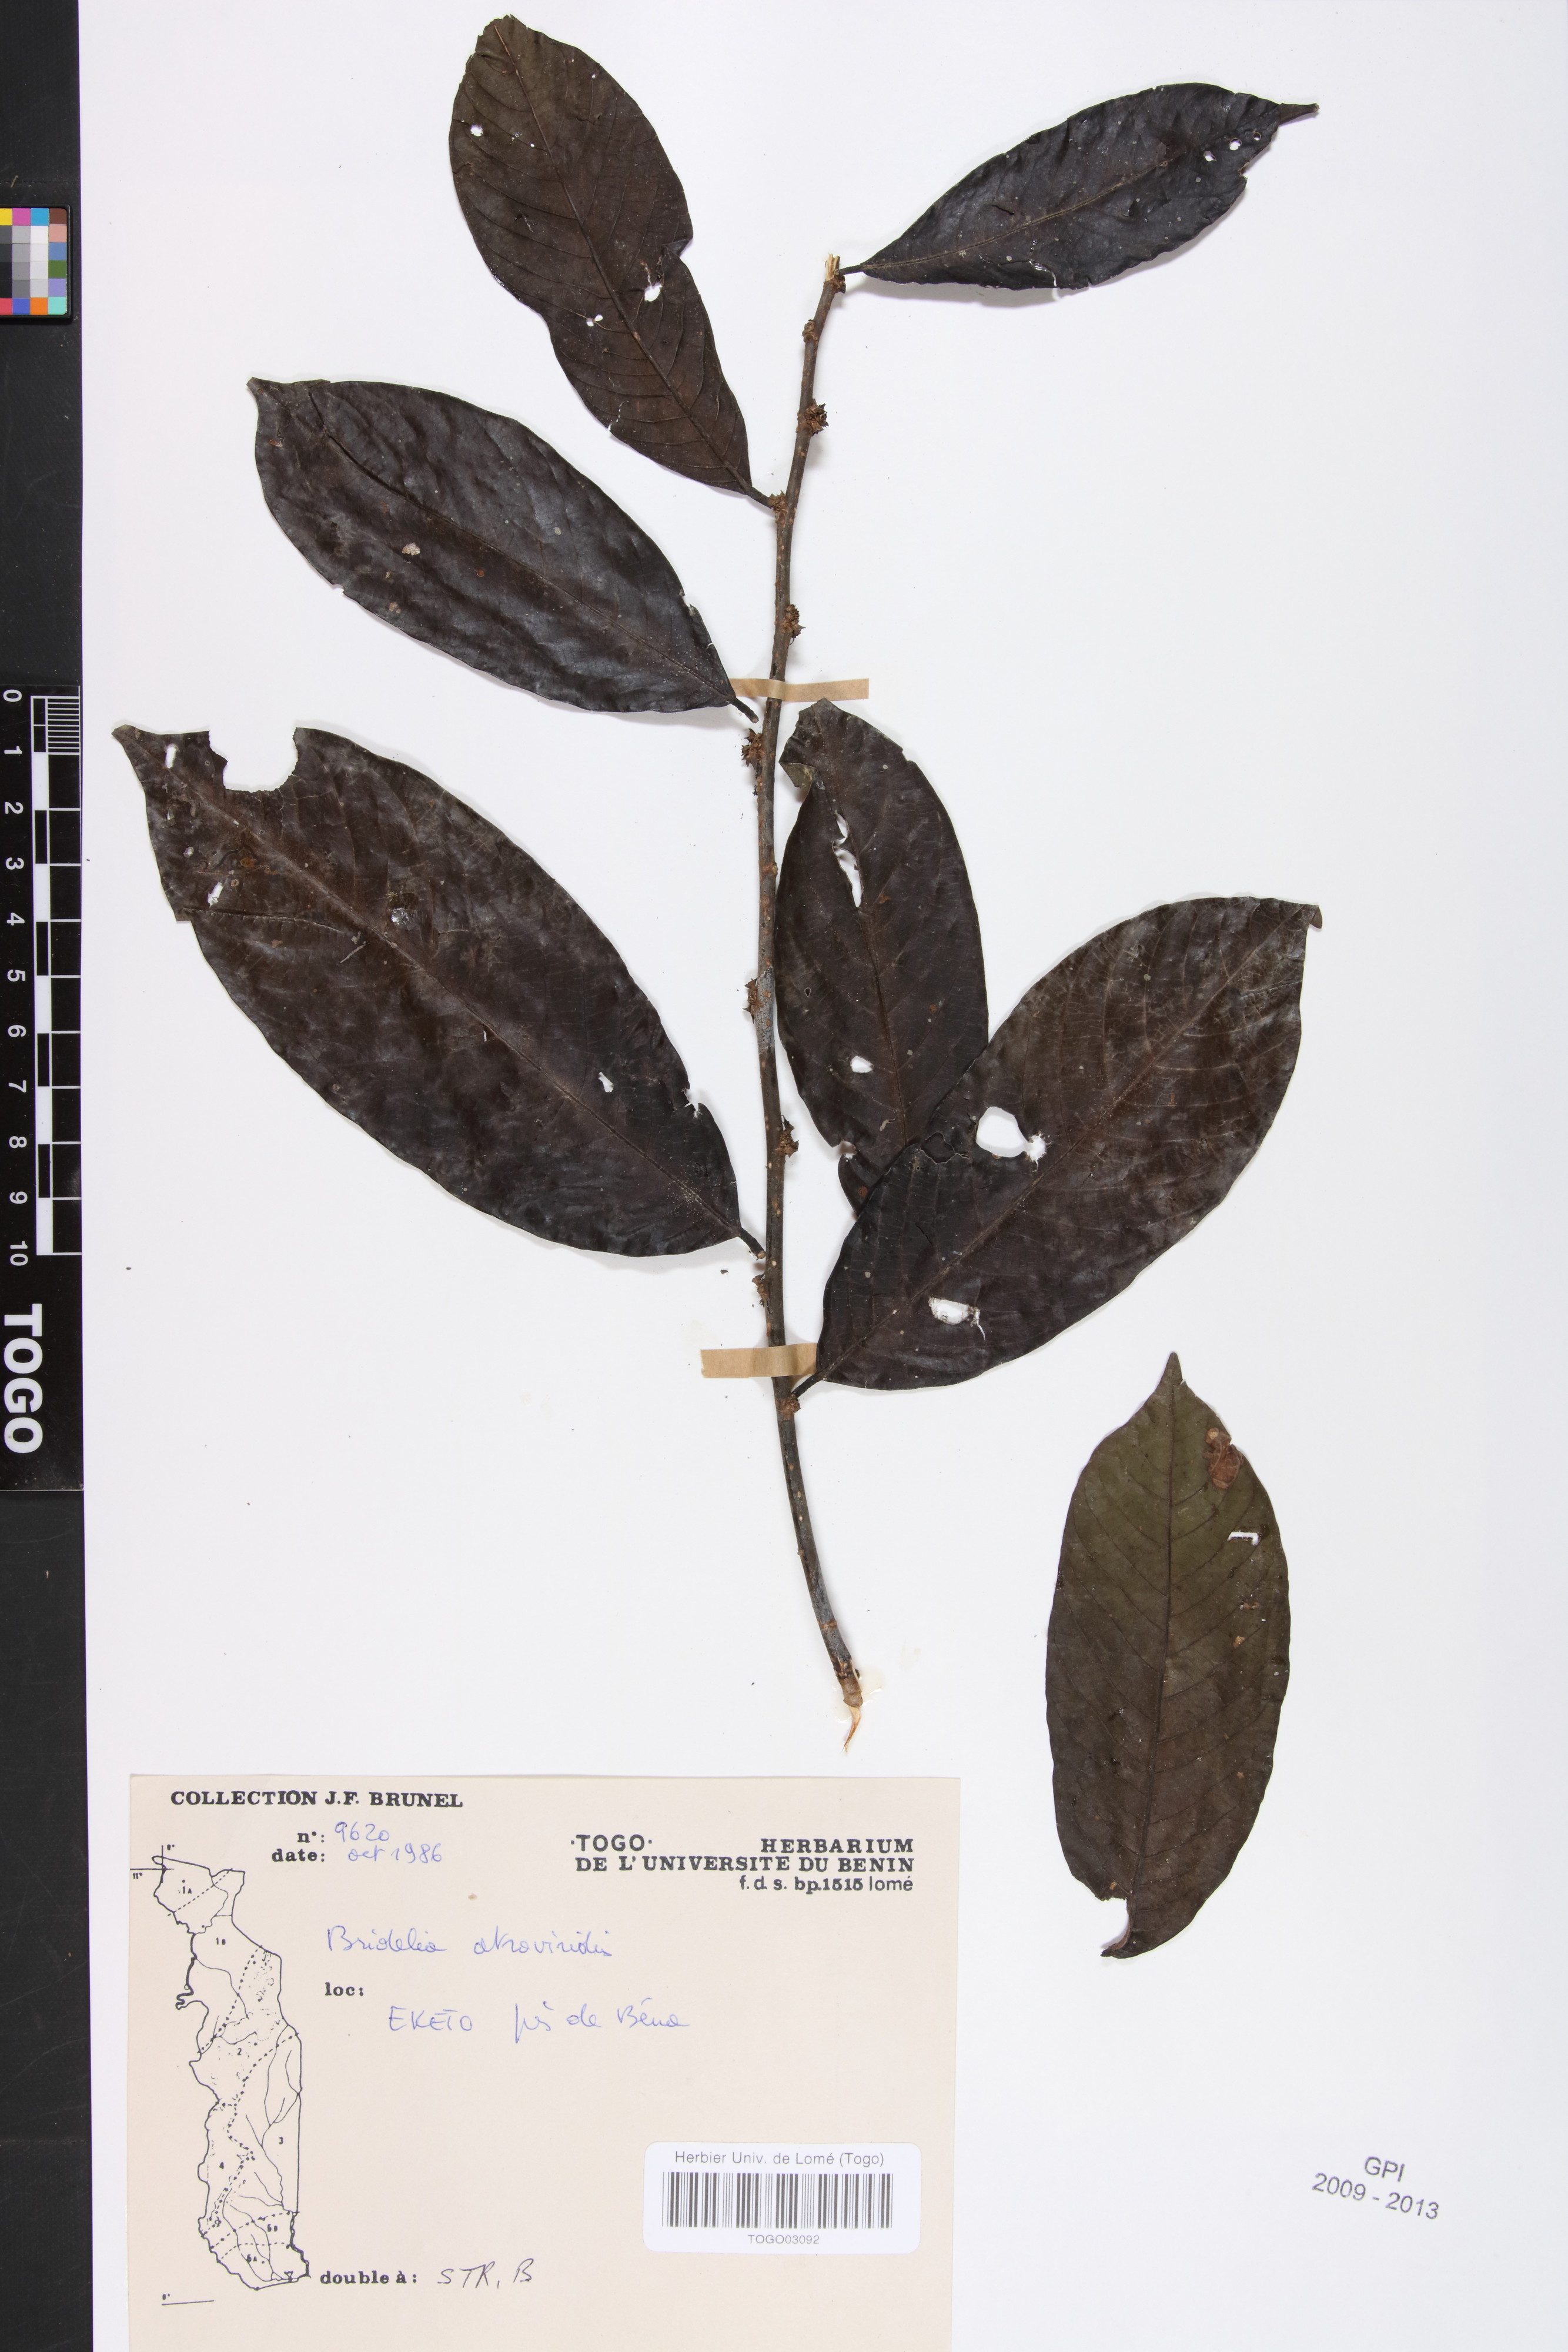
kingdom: Plantae
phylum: Tracheophyta
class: Magnoliopsida
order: Malpighiales
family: Phyllanthaceae
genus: Bridelia
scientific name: Bridelia atroviridis
